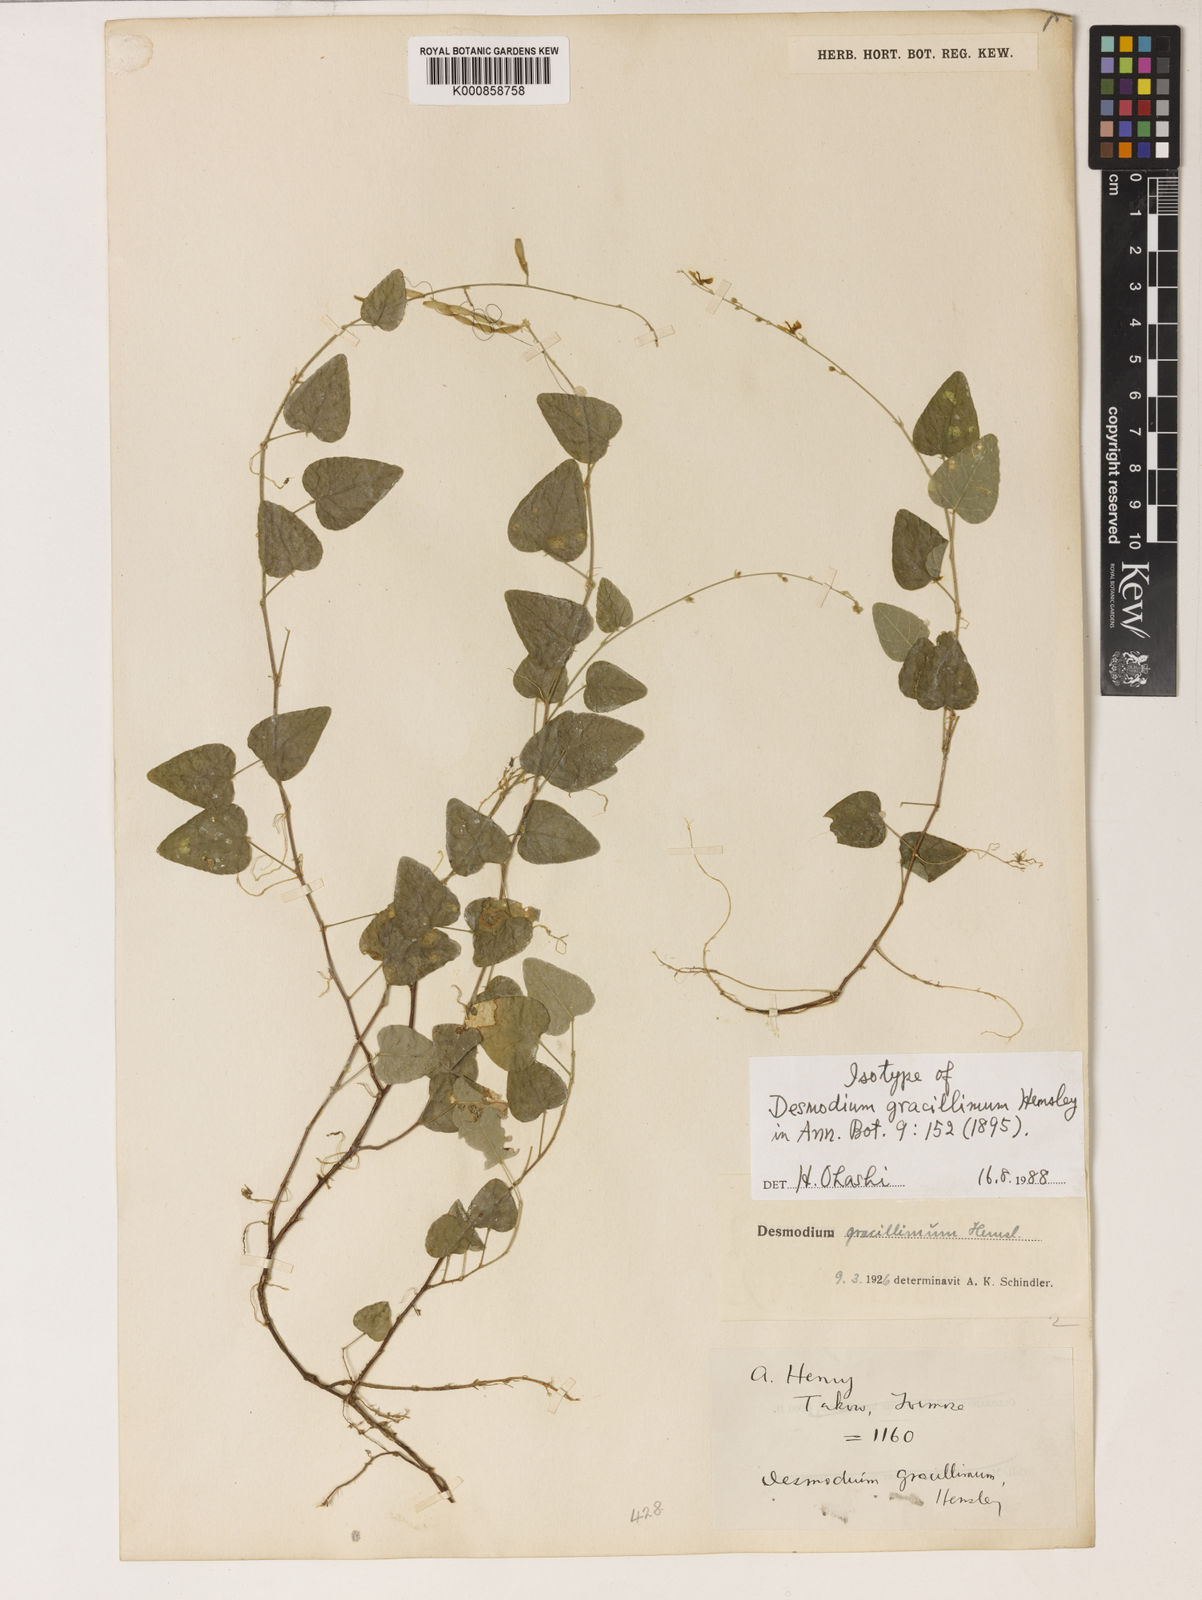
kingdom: Plantae
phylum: Tracheophyta
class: Magnoliopsida
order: Fabales
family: Fabaceae
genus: Sohmaea
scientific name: Sohmaea gracillima
